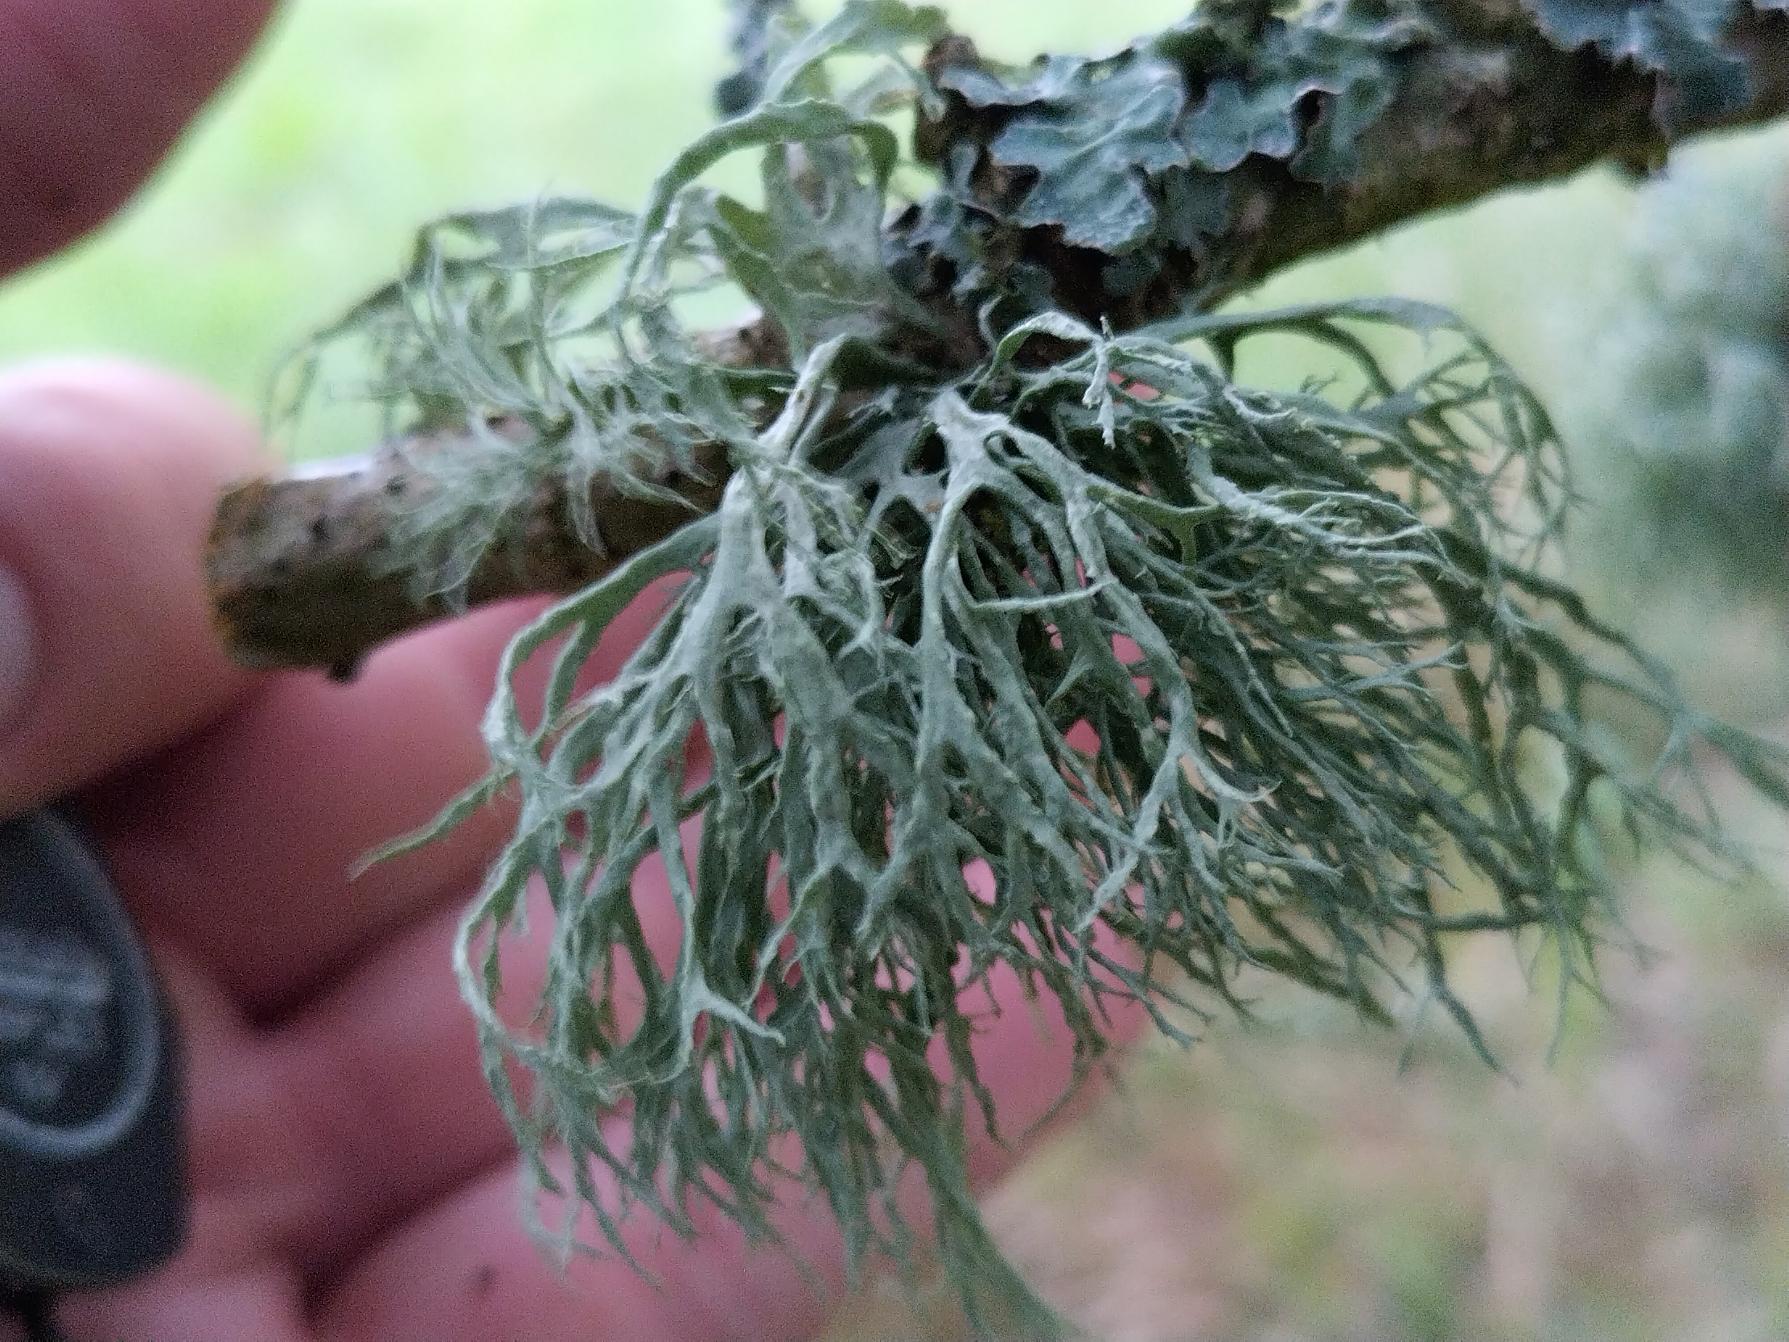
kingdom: Fungi
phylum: Ascomycota
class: Lecanoromycetes
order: Lecanorales
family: Ramalinaceae
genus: Ramalina
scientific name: Ramalina farinacea
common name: Melet grenlav
